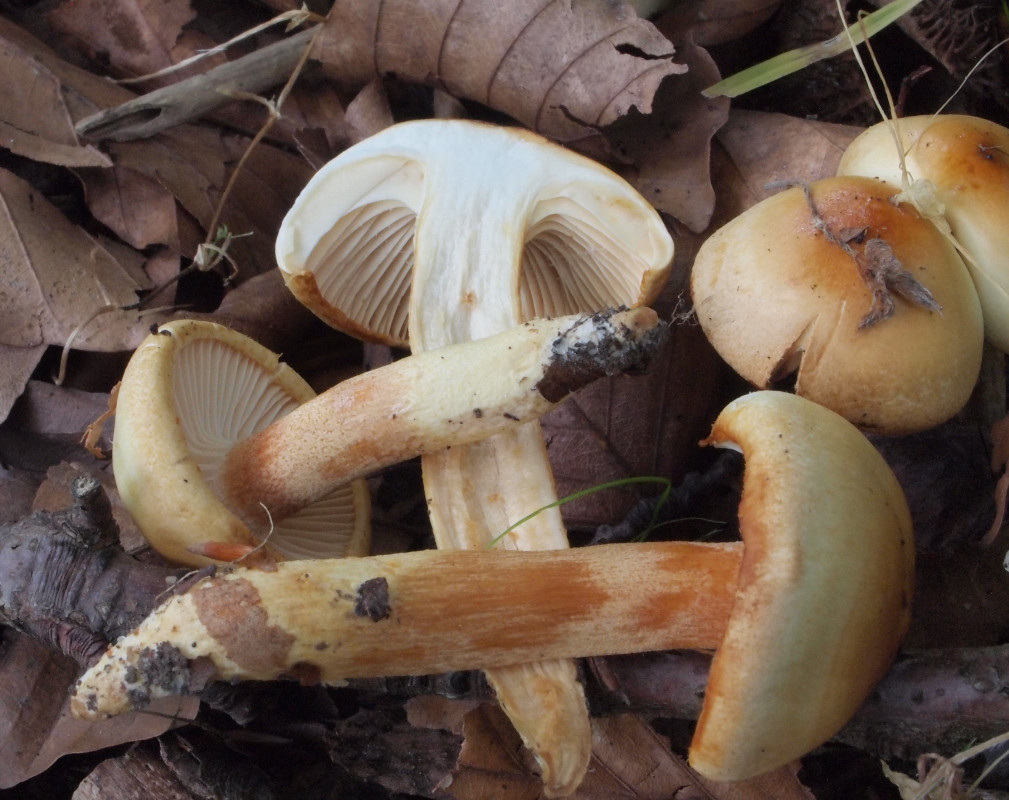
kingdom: Fungi
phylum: Basidiomycota
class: Agaricomycetes
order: Agaricales
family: Hygrophoraceae
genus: Hygrophorus
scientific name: Hygrophorus discoxanthus
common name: ildelugtende sneglehat
